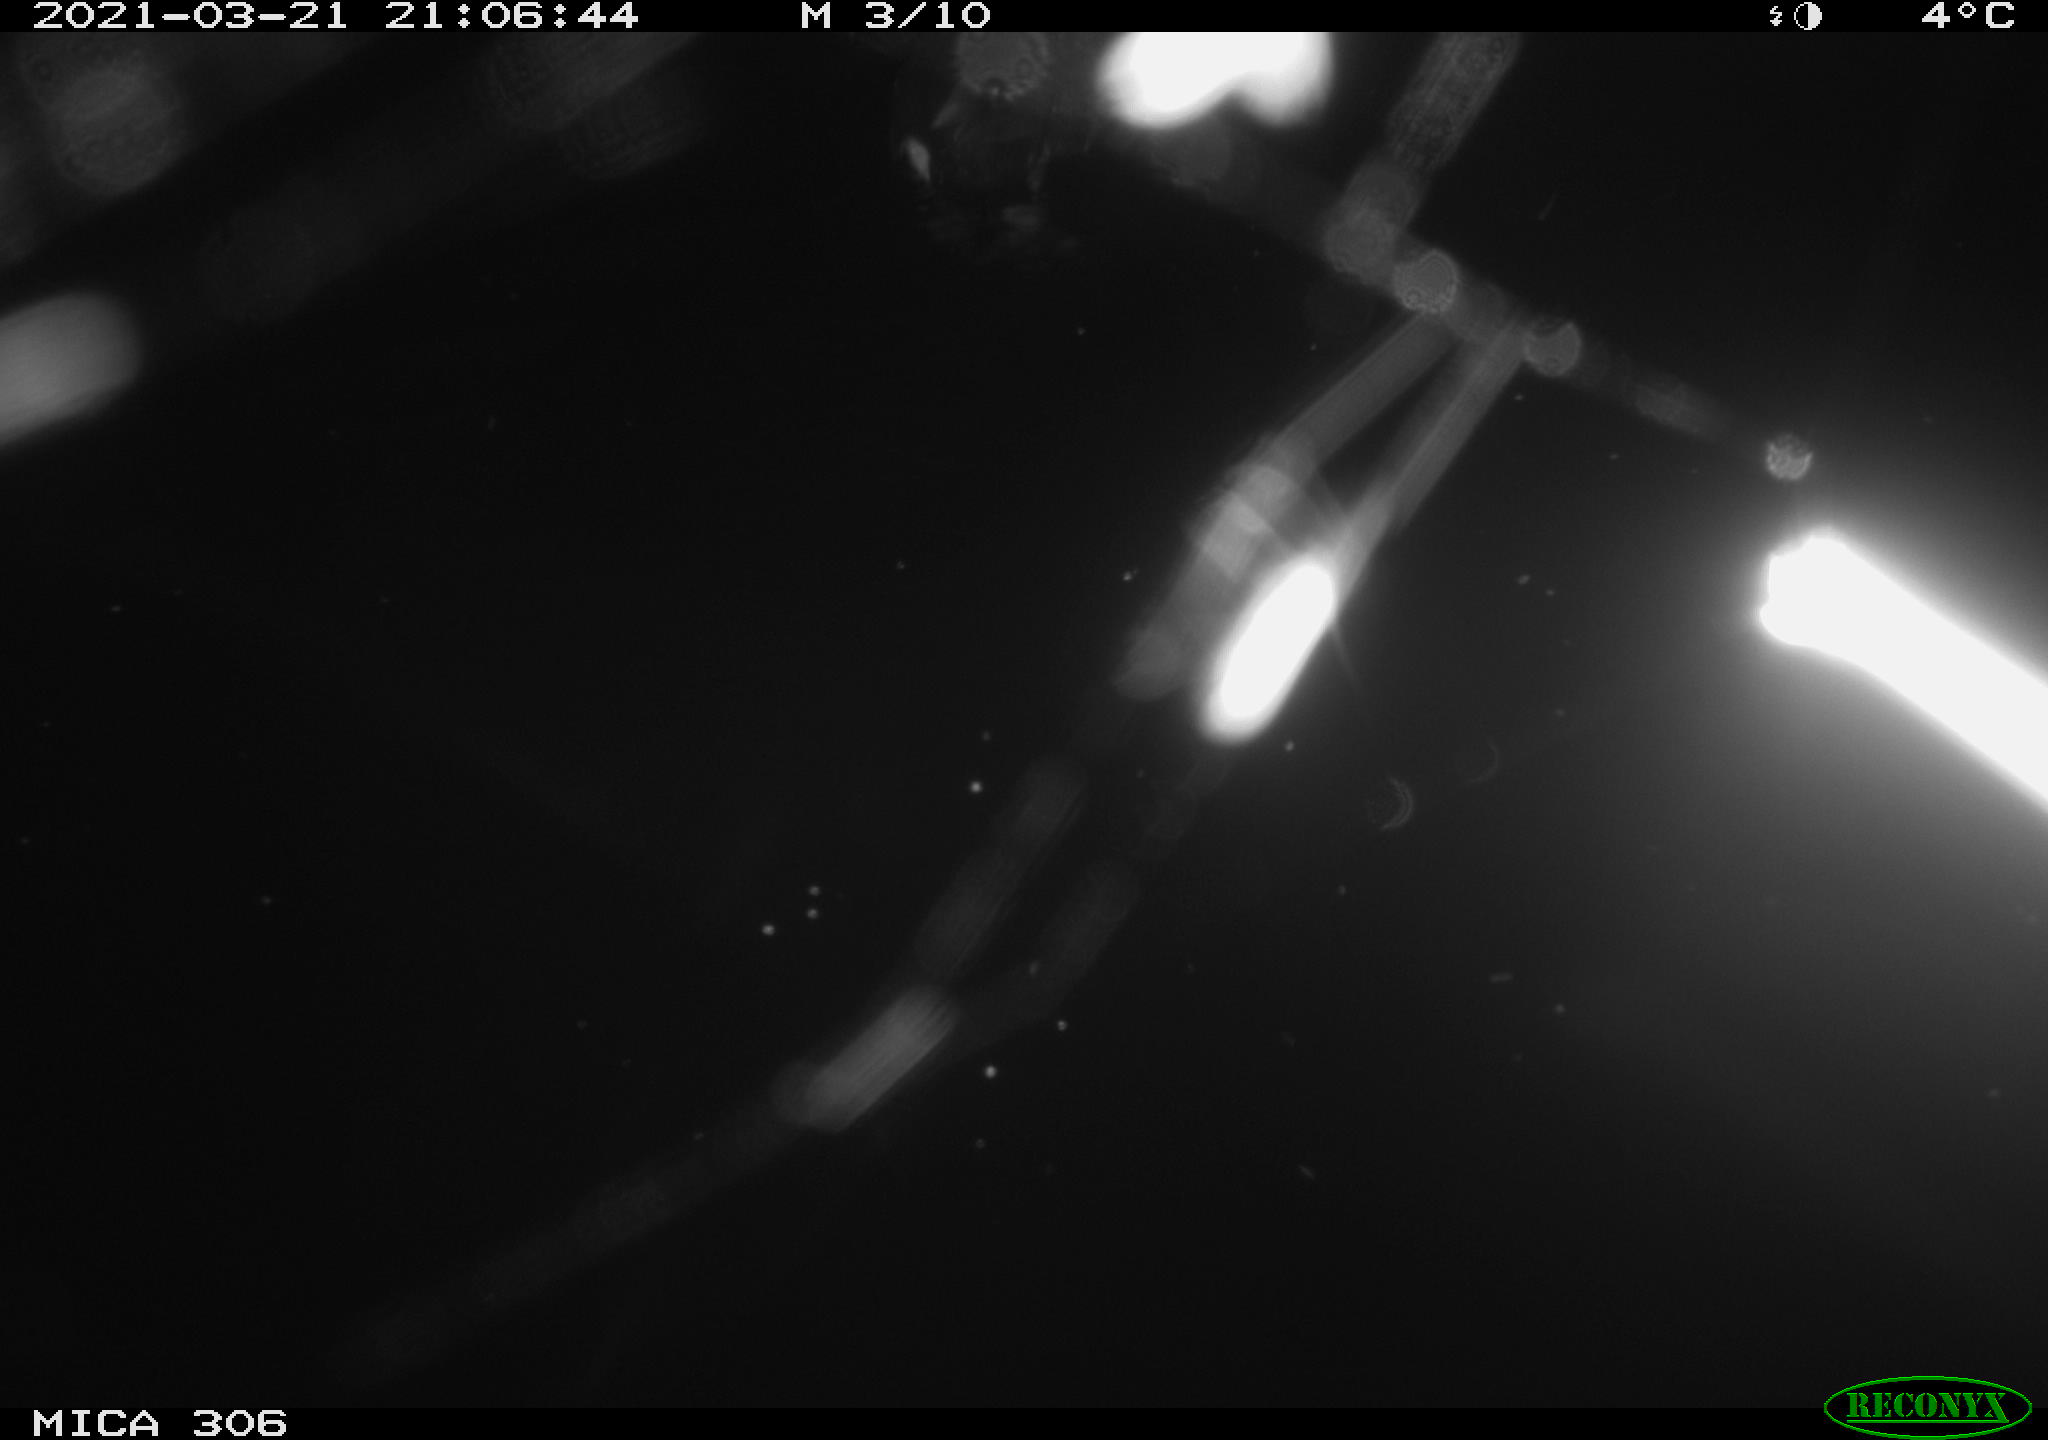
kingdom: Animalia
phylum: Chordata
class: Aves
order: Gruiformes
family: Rallidae
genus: Fulica
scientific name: Fulica atra
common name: Eurasian coot
